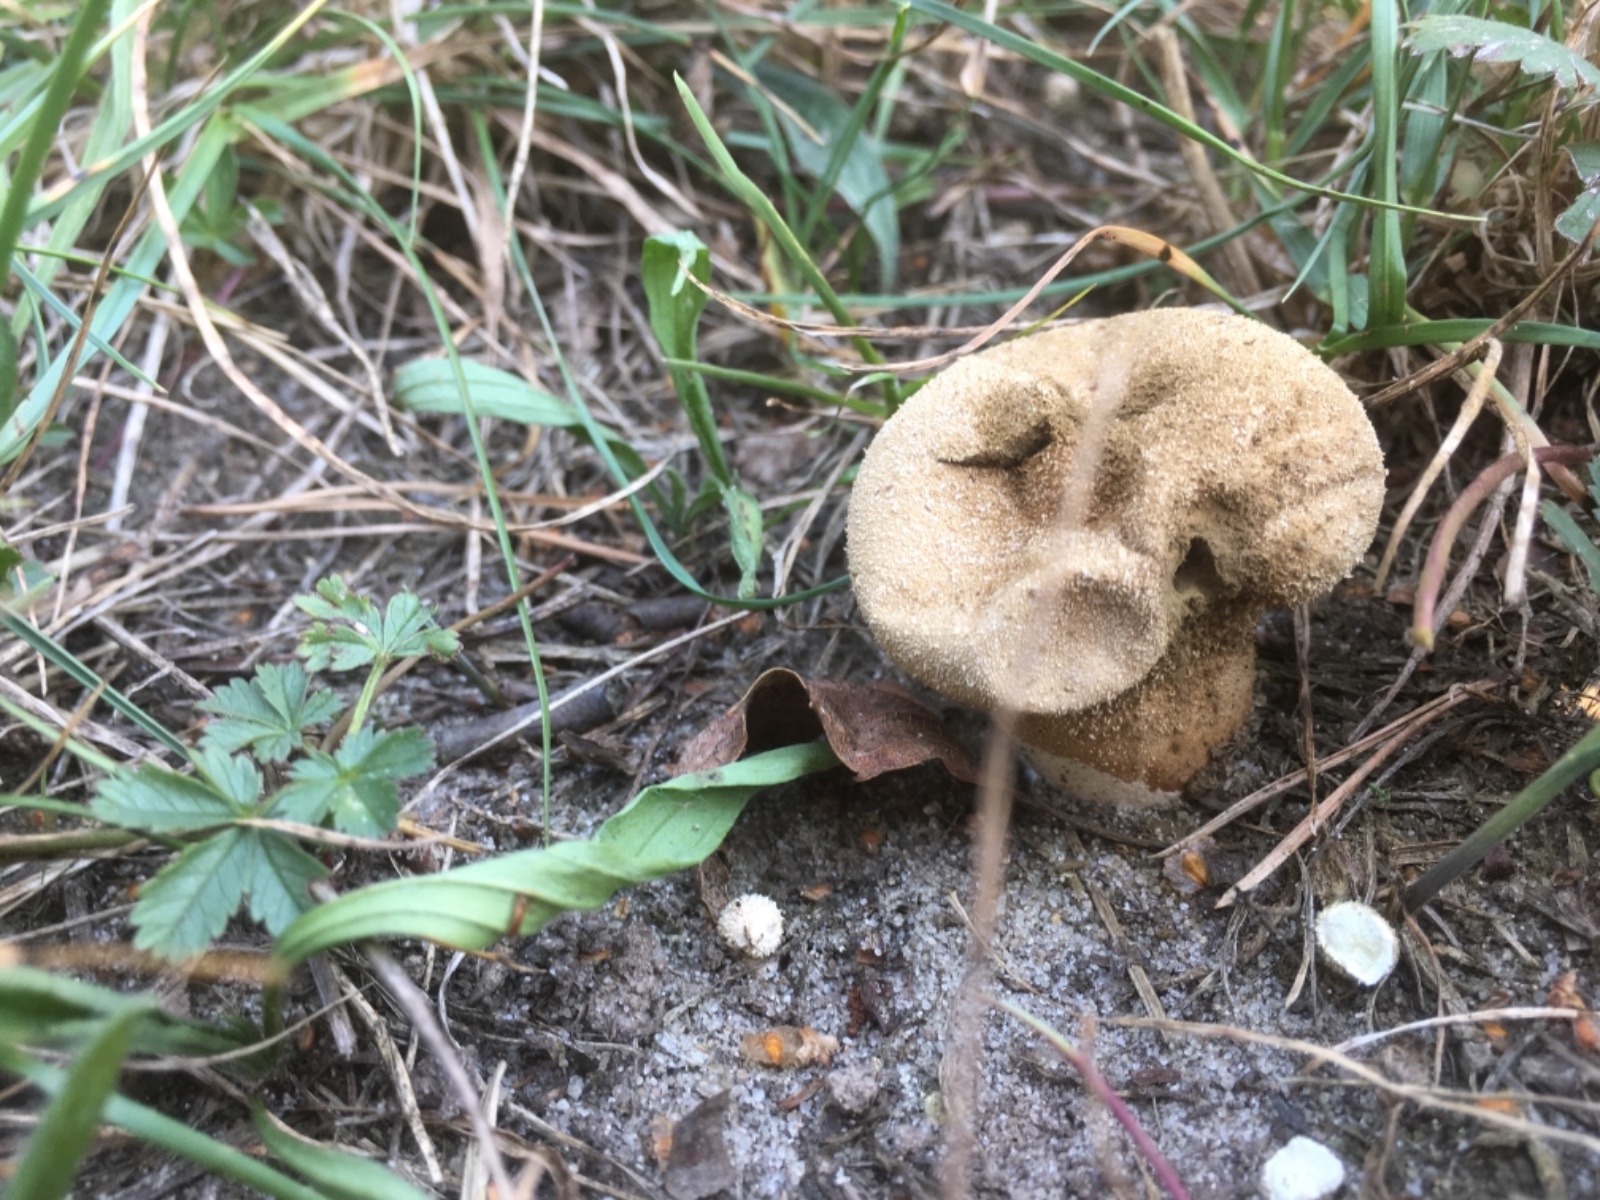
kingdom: Fungi
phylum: Basidiomycota
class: Agaricomycetes
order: Agaricales
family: Lycoperdaceae
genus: Lycoperdon
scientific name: Lycoperdon pratense
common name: flad støvbold
